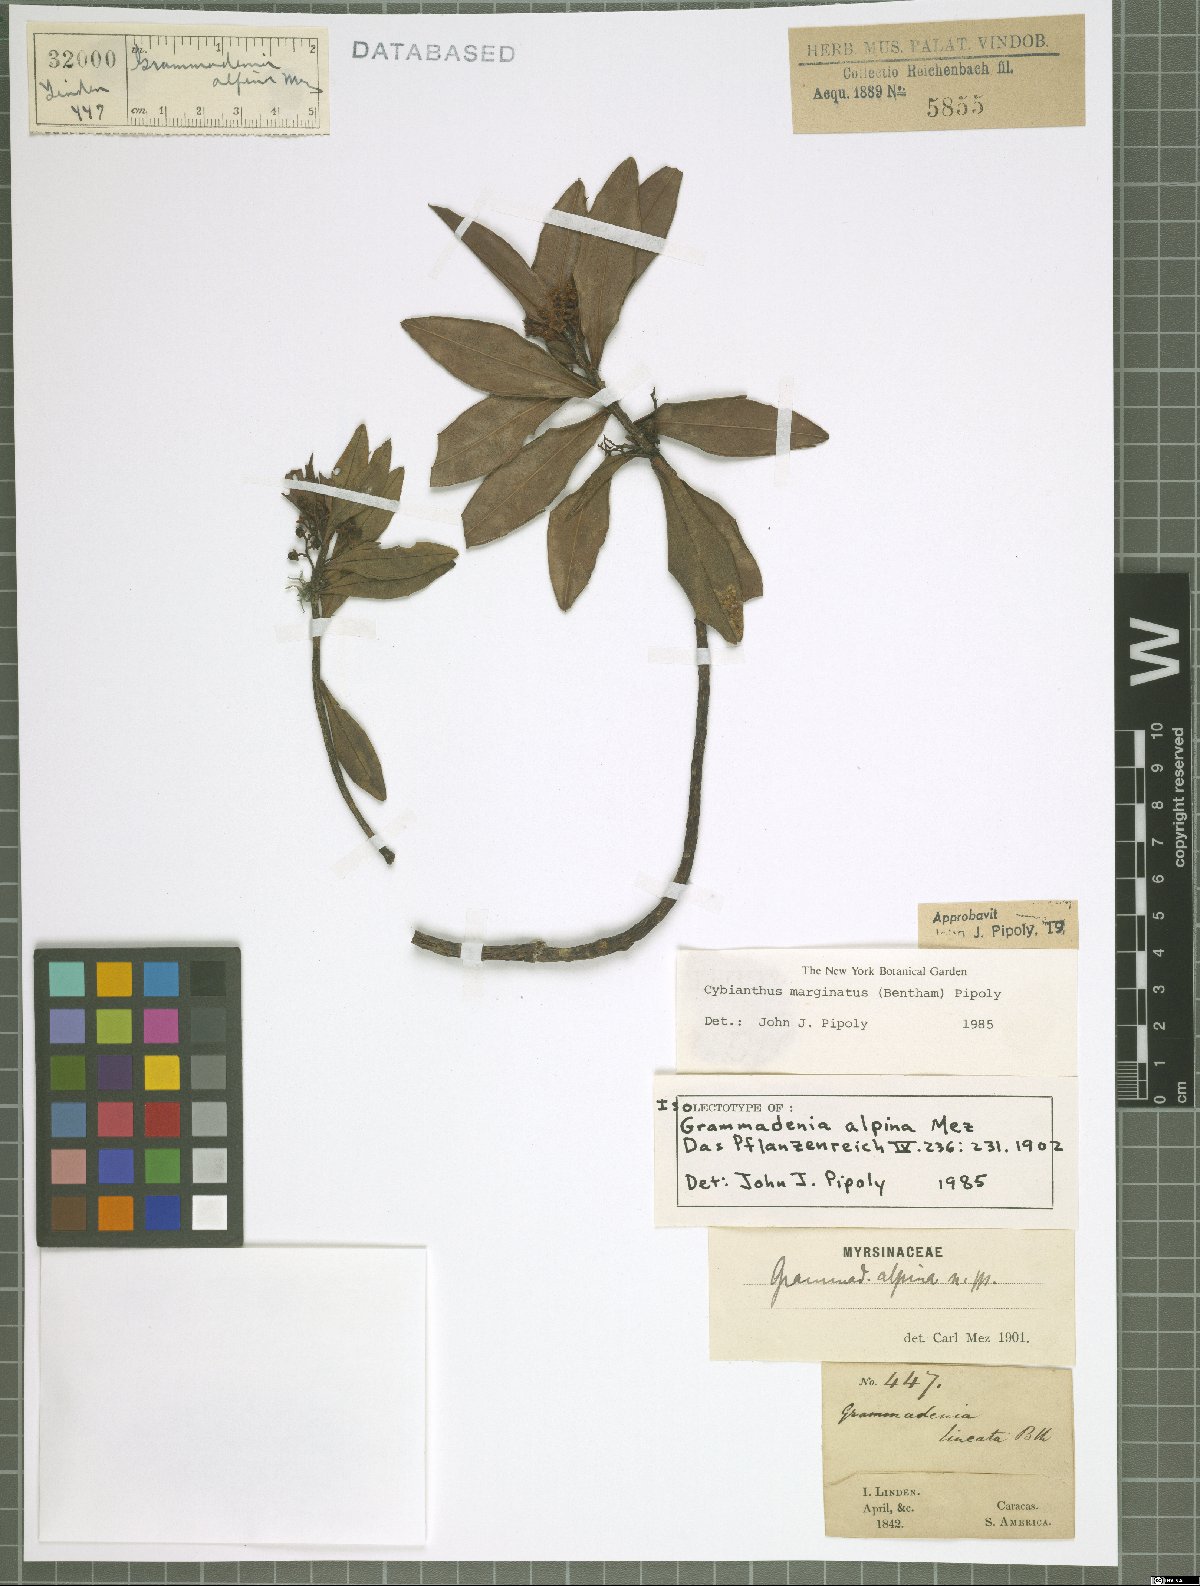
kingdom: Plantae
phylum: Tracheophyta
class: Magnoliopsida
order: Ericales
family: Primulaceae
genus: Cybianthus
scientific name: Cybianthus marginatus
